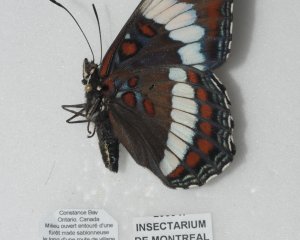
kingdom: Animalia
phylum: Arthropoda
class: Insecta
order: Lepidoptera
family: Nymphalidae
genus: Limenitis
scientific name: Limenitis arthemis
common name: Red-spotted Admiral
